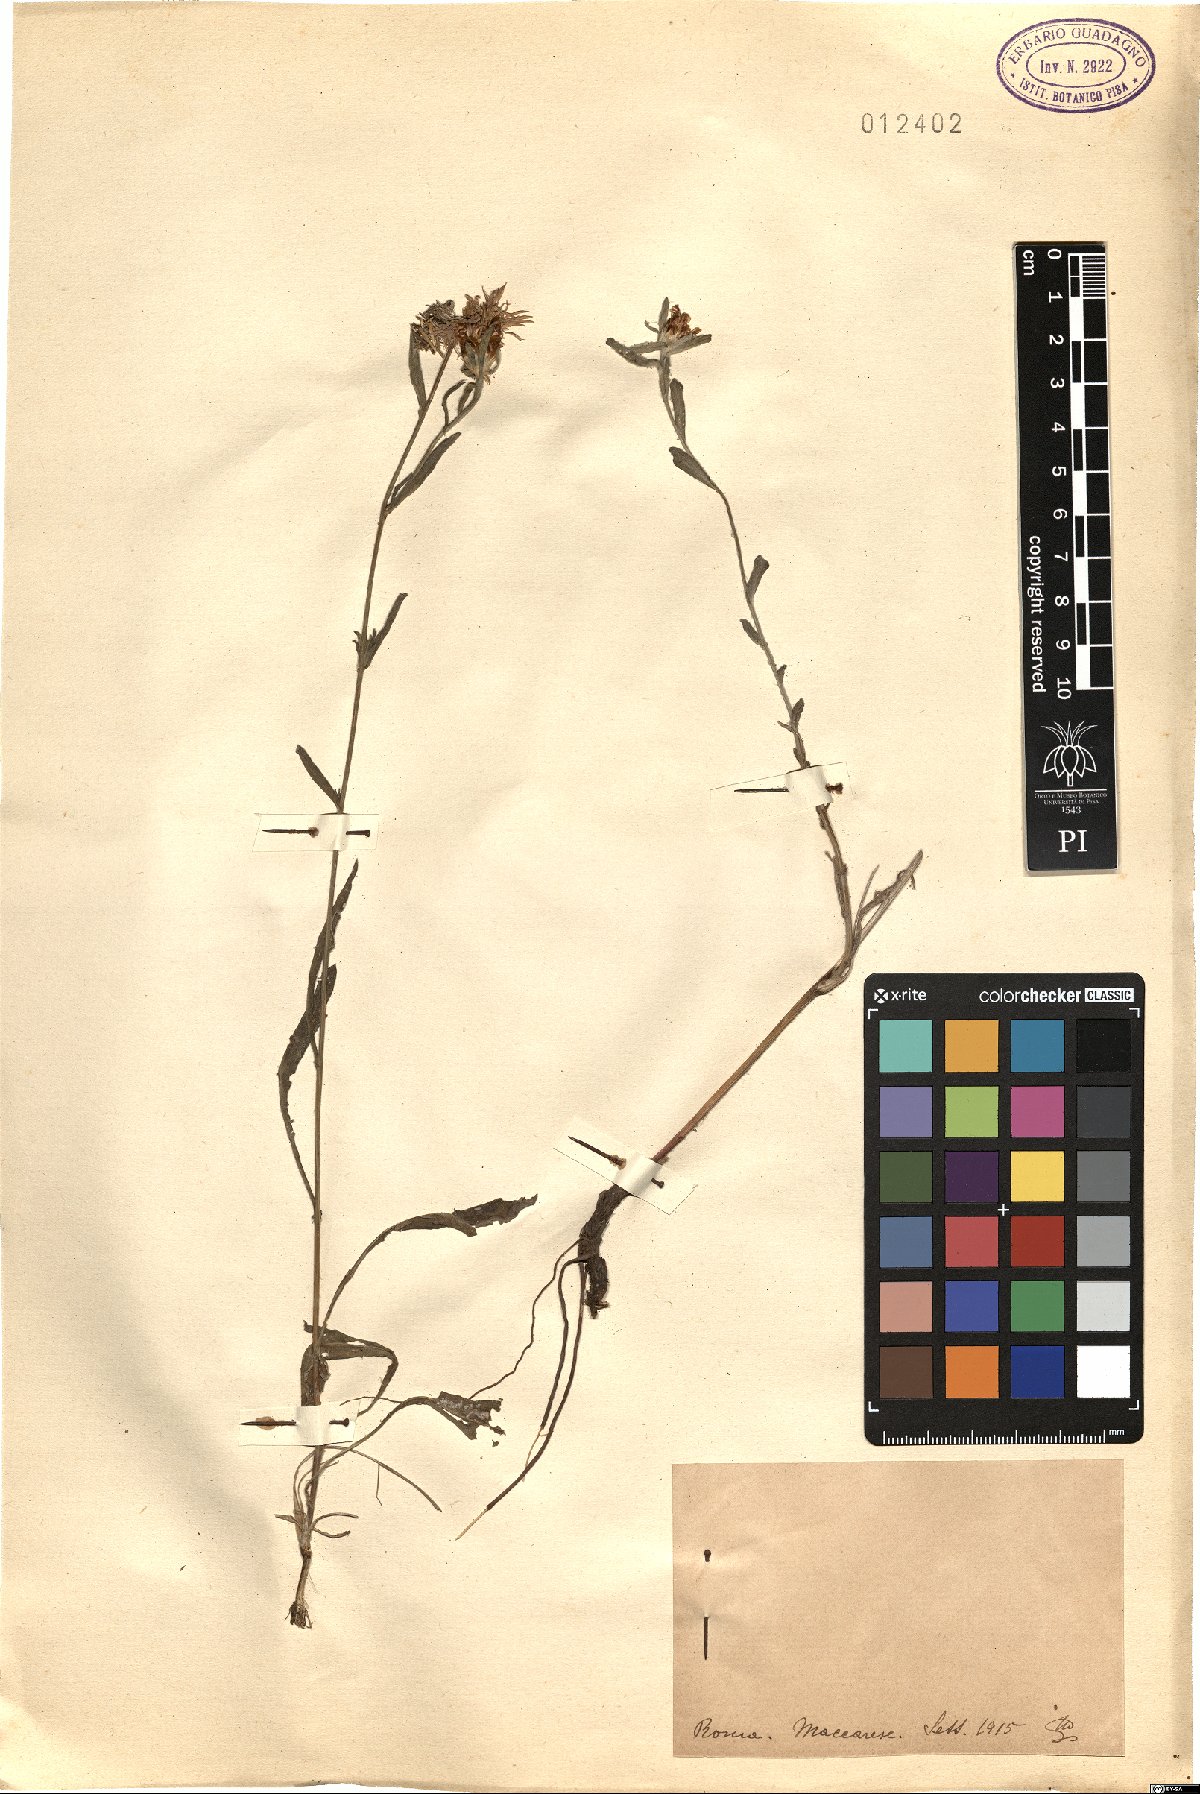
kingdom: Plantae
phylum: Tracheophyta
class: Magnoliopsida
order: Asterales
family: Asteraceae
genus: Centaurea
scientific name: Centaurea
